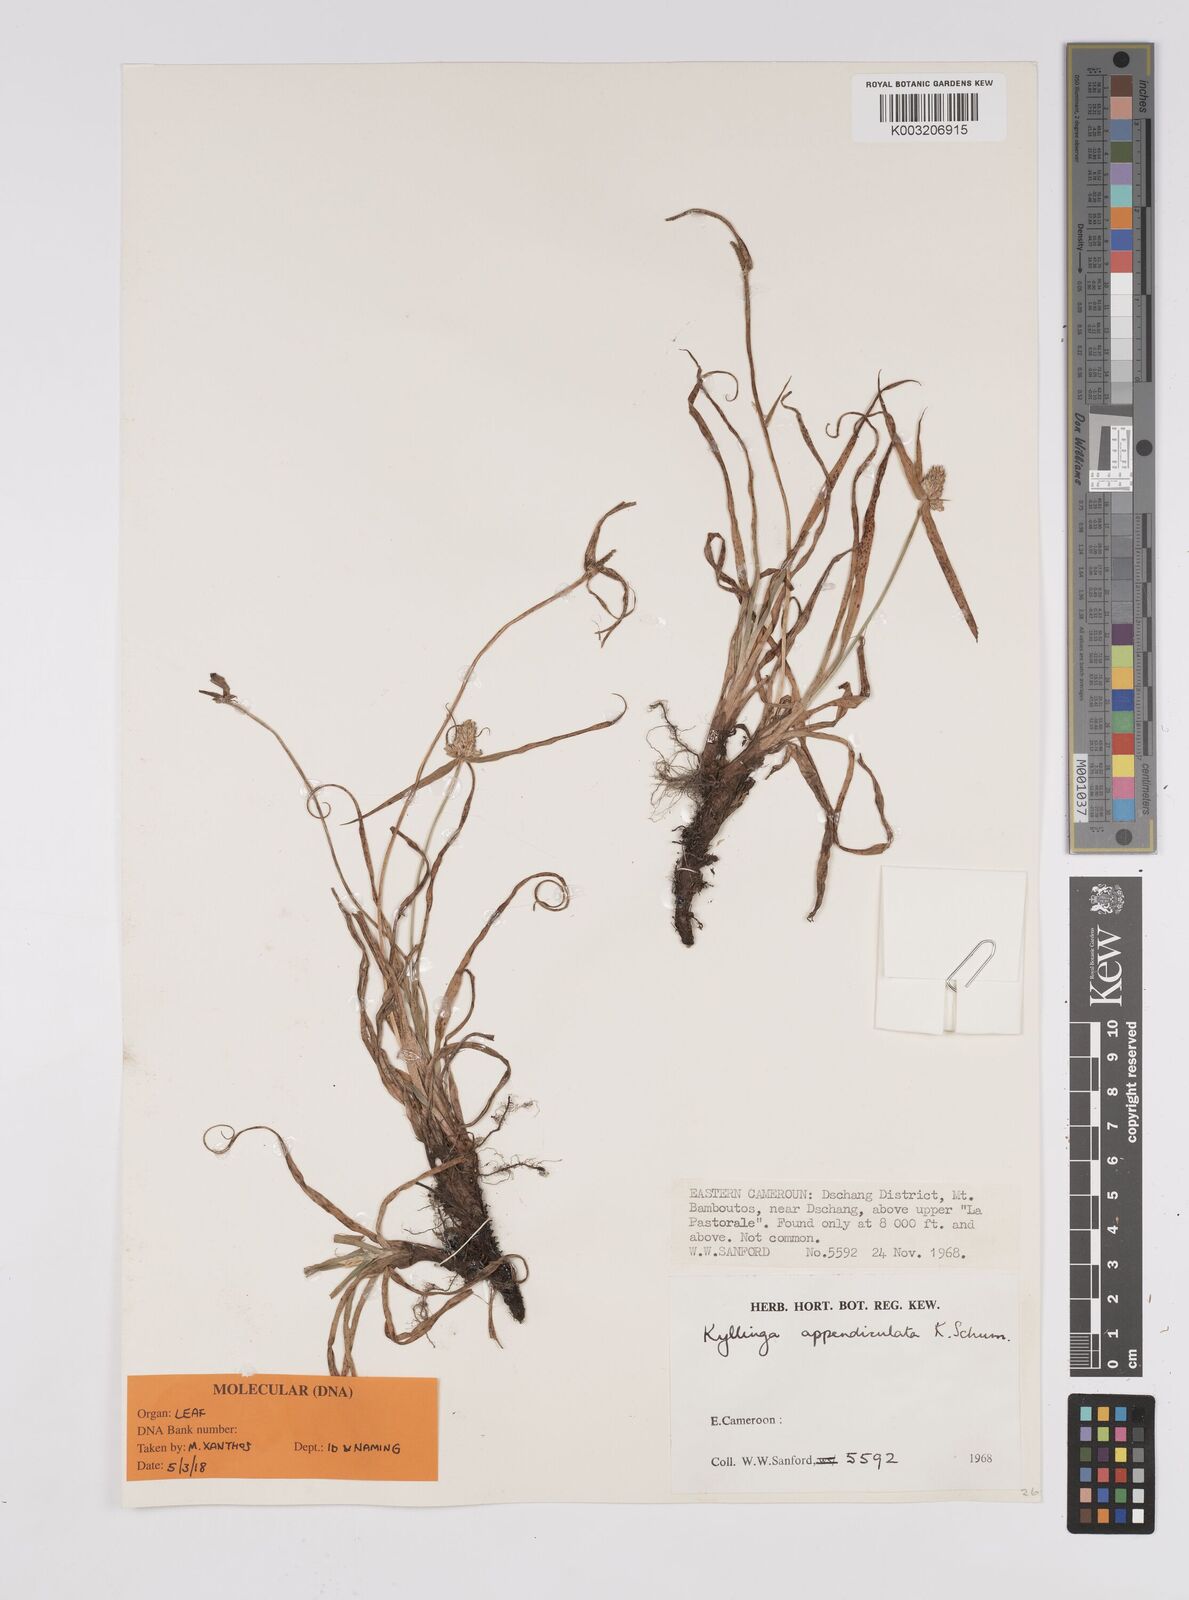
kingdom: Plantae
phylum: Tracheophyta
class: Liliopsida
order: Poales
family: Cyperaceae
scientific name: Cyperaceae
